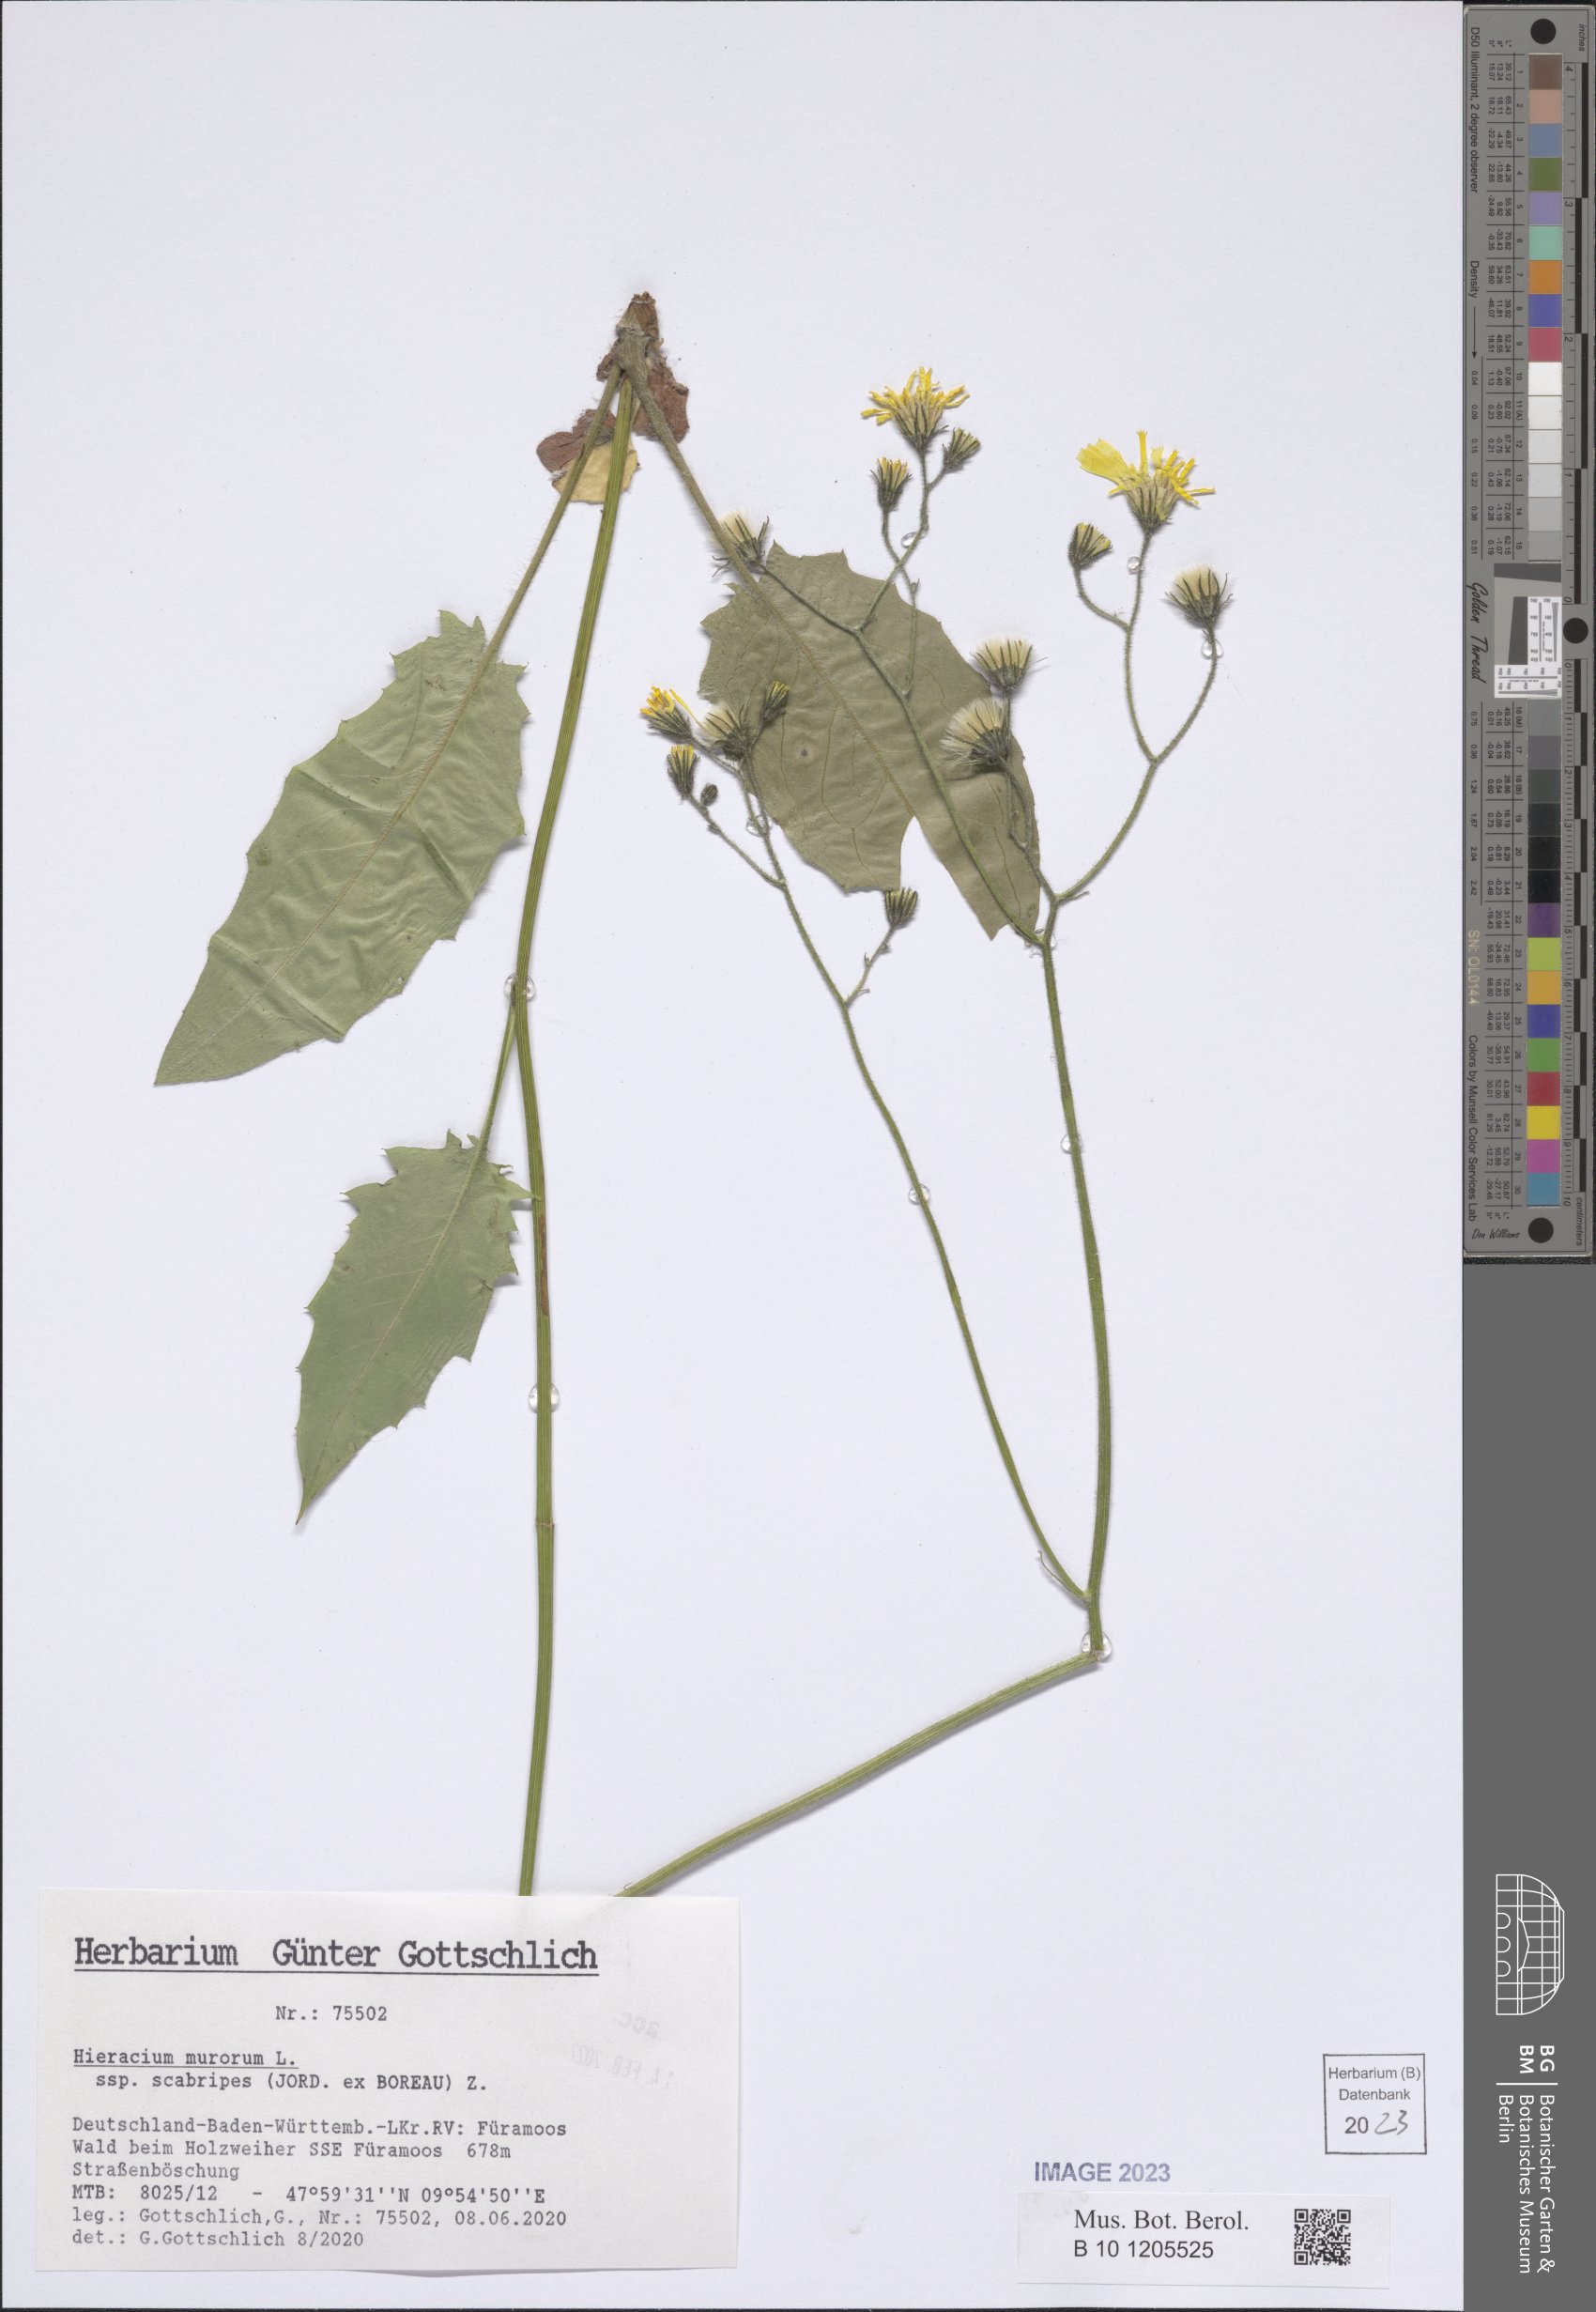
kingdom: Plantae
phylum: Tracheophyta
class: Magnoliopsida
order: Asterales
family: Asteraceae
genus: Hieracium
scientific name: Hieracium murorum
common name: Wall hawkweed
